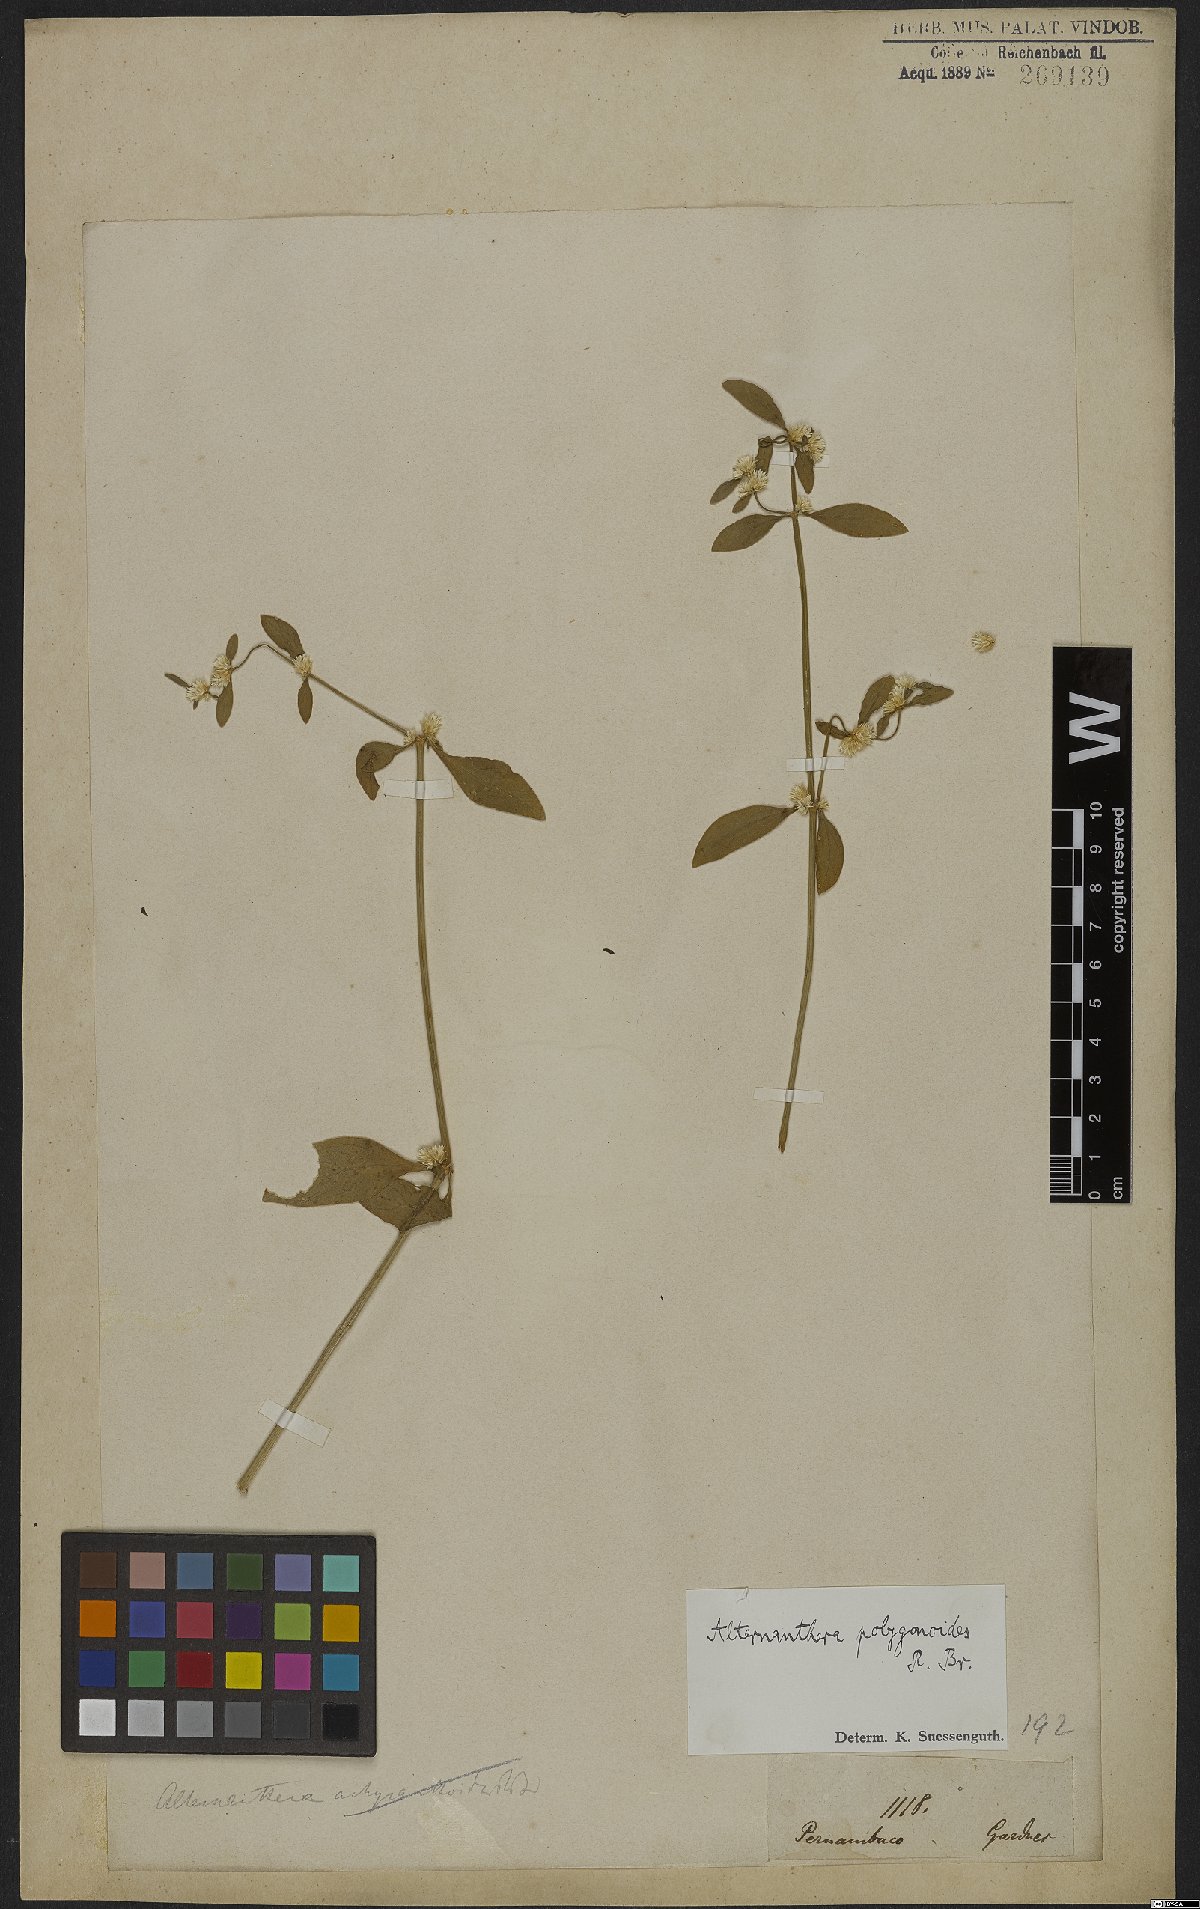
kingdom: Plantae
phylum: Tracheophyta
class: Magnoliopsida
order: Caryophyllales
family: Amaranthaceae
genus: Alternanthera
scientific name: Alternanthera sessilis
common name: Sessile joyweed
